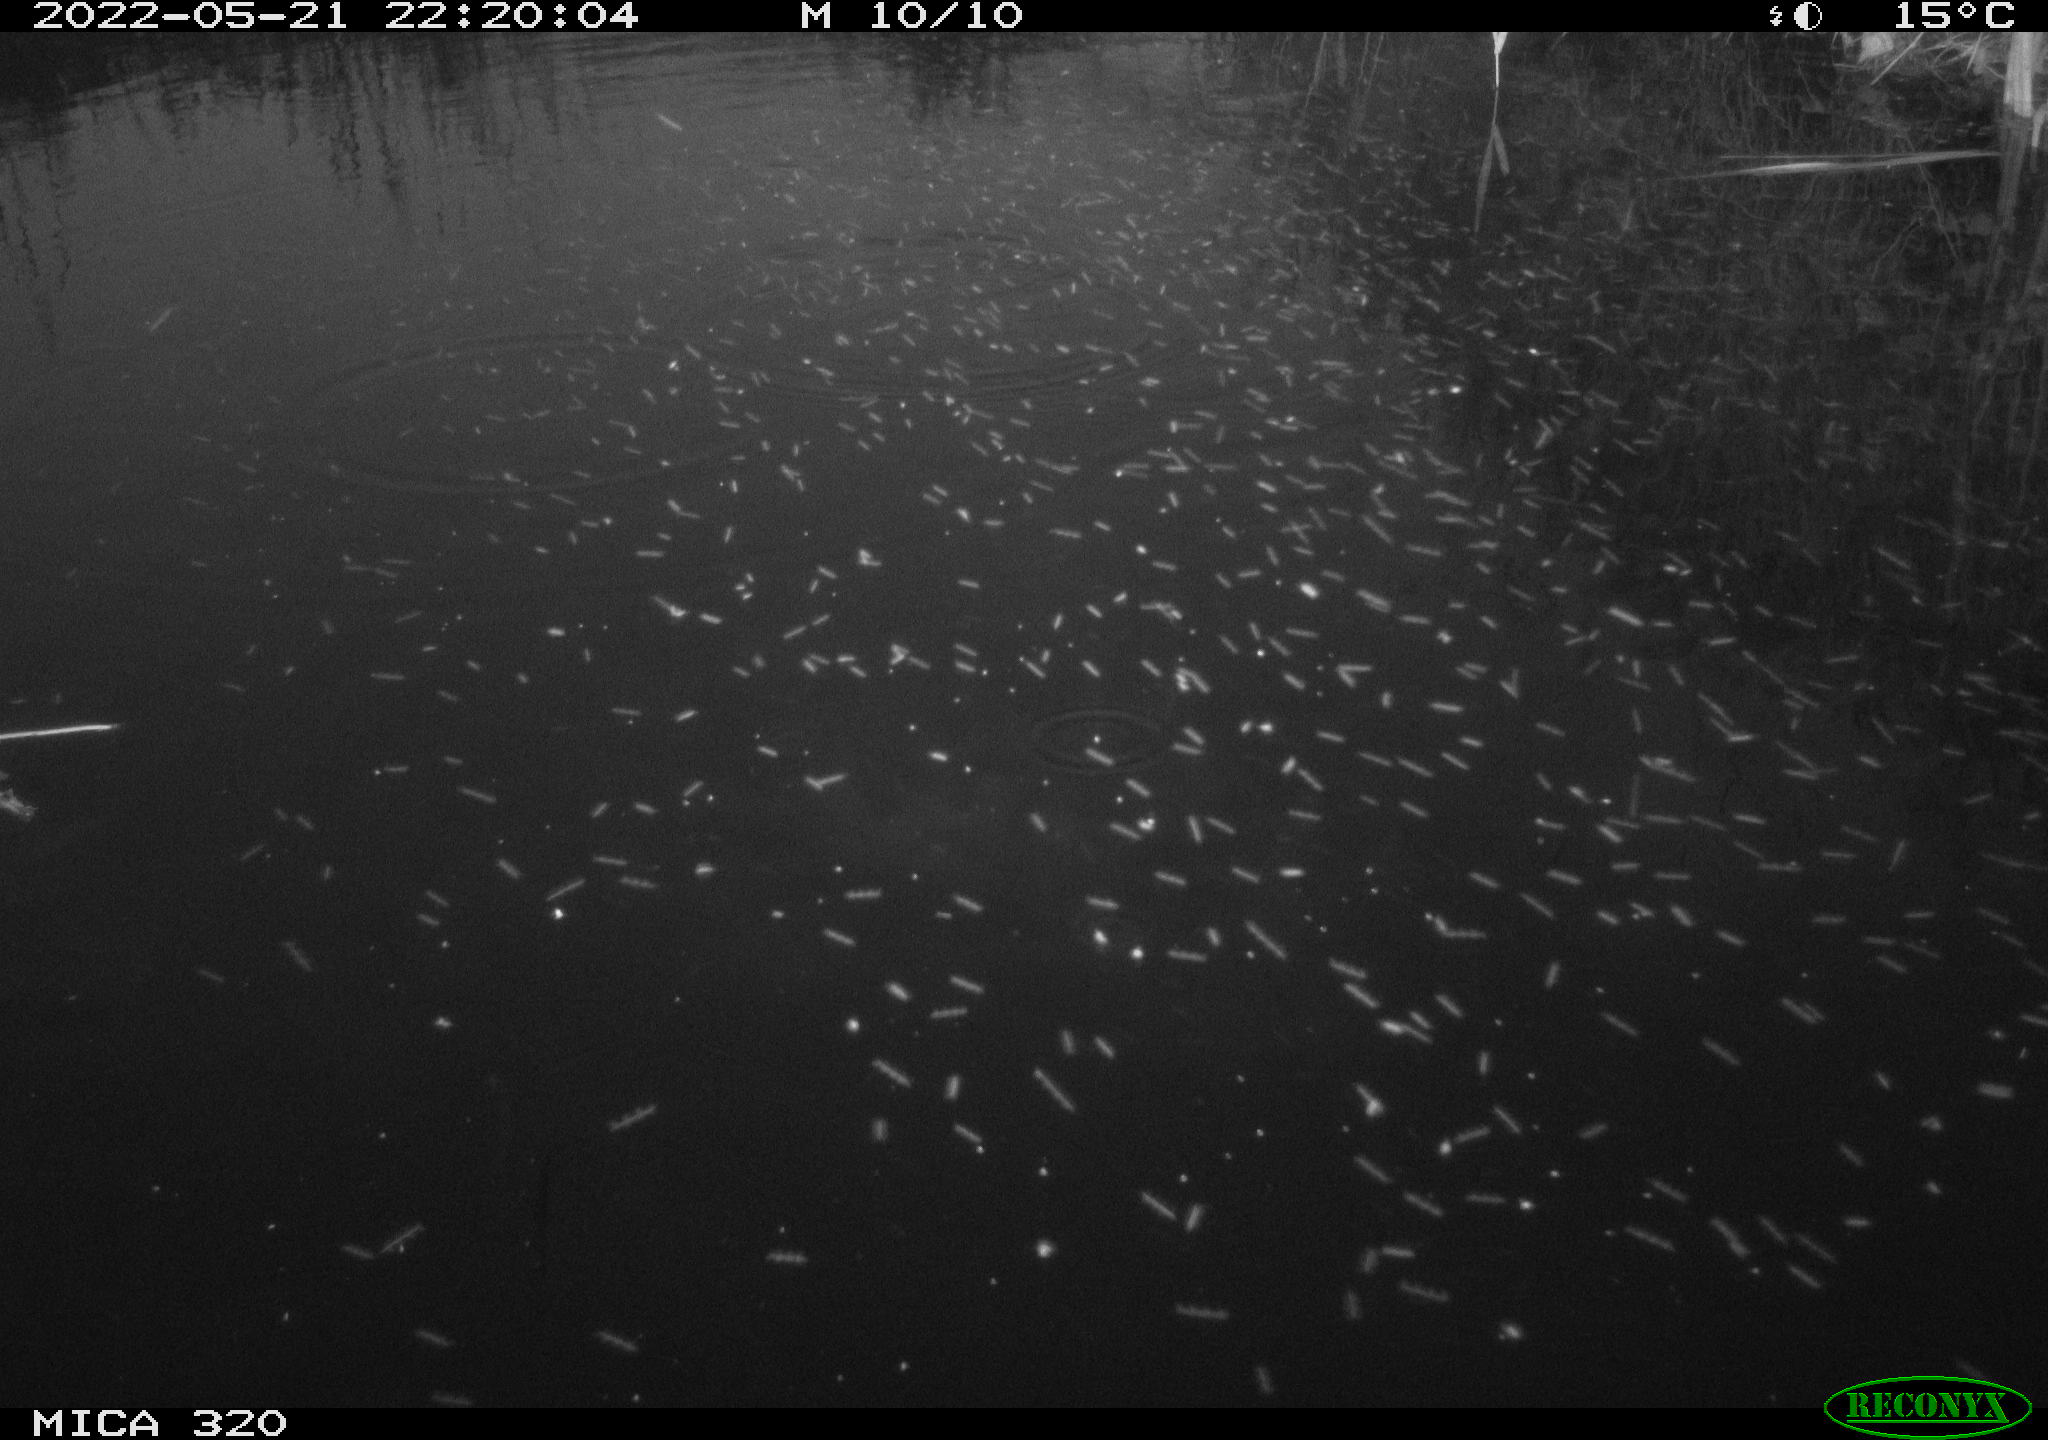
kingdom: Animalia
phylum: Chordata
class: Aves
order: Anseriformes
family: Anatidae
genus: Anas
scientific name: Anas platyrhynchos
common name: Mallard
